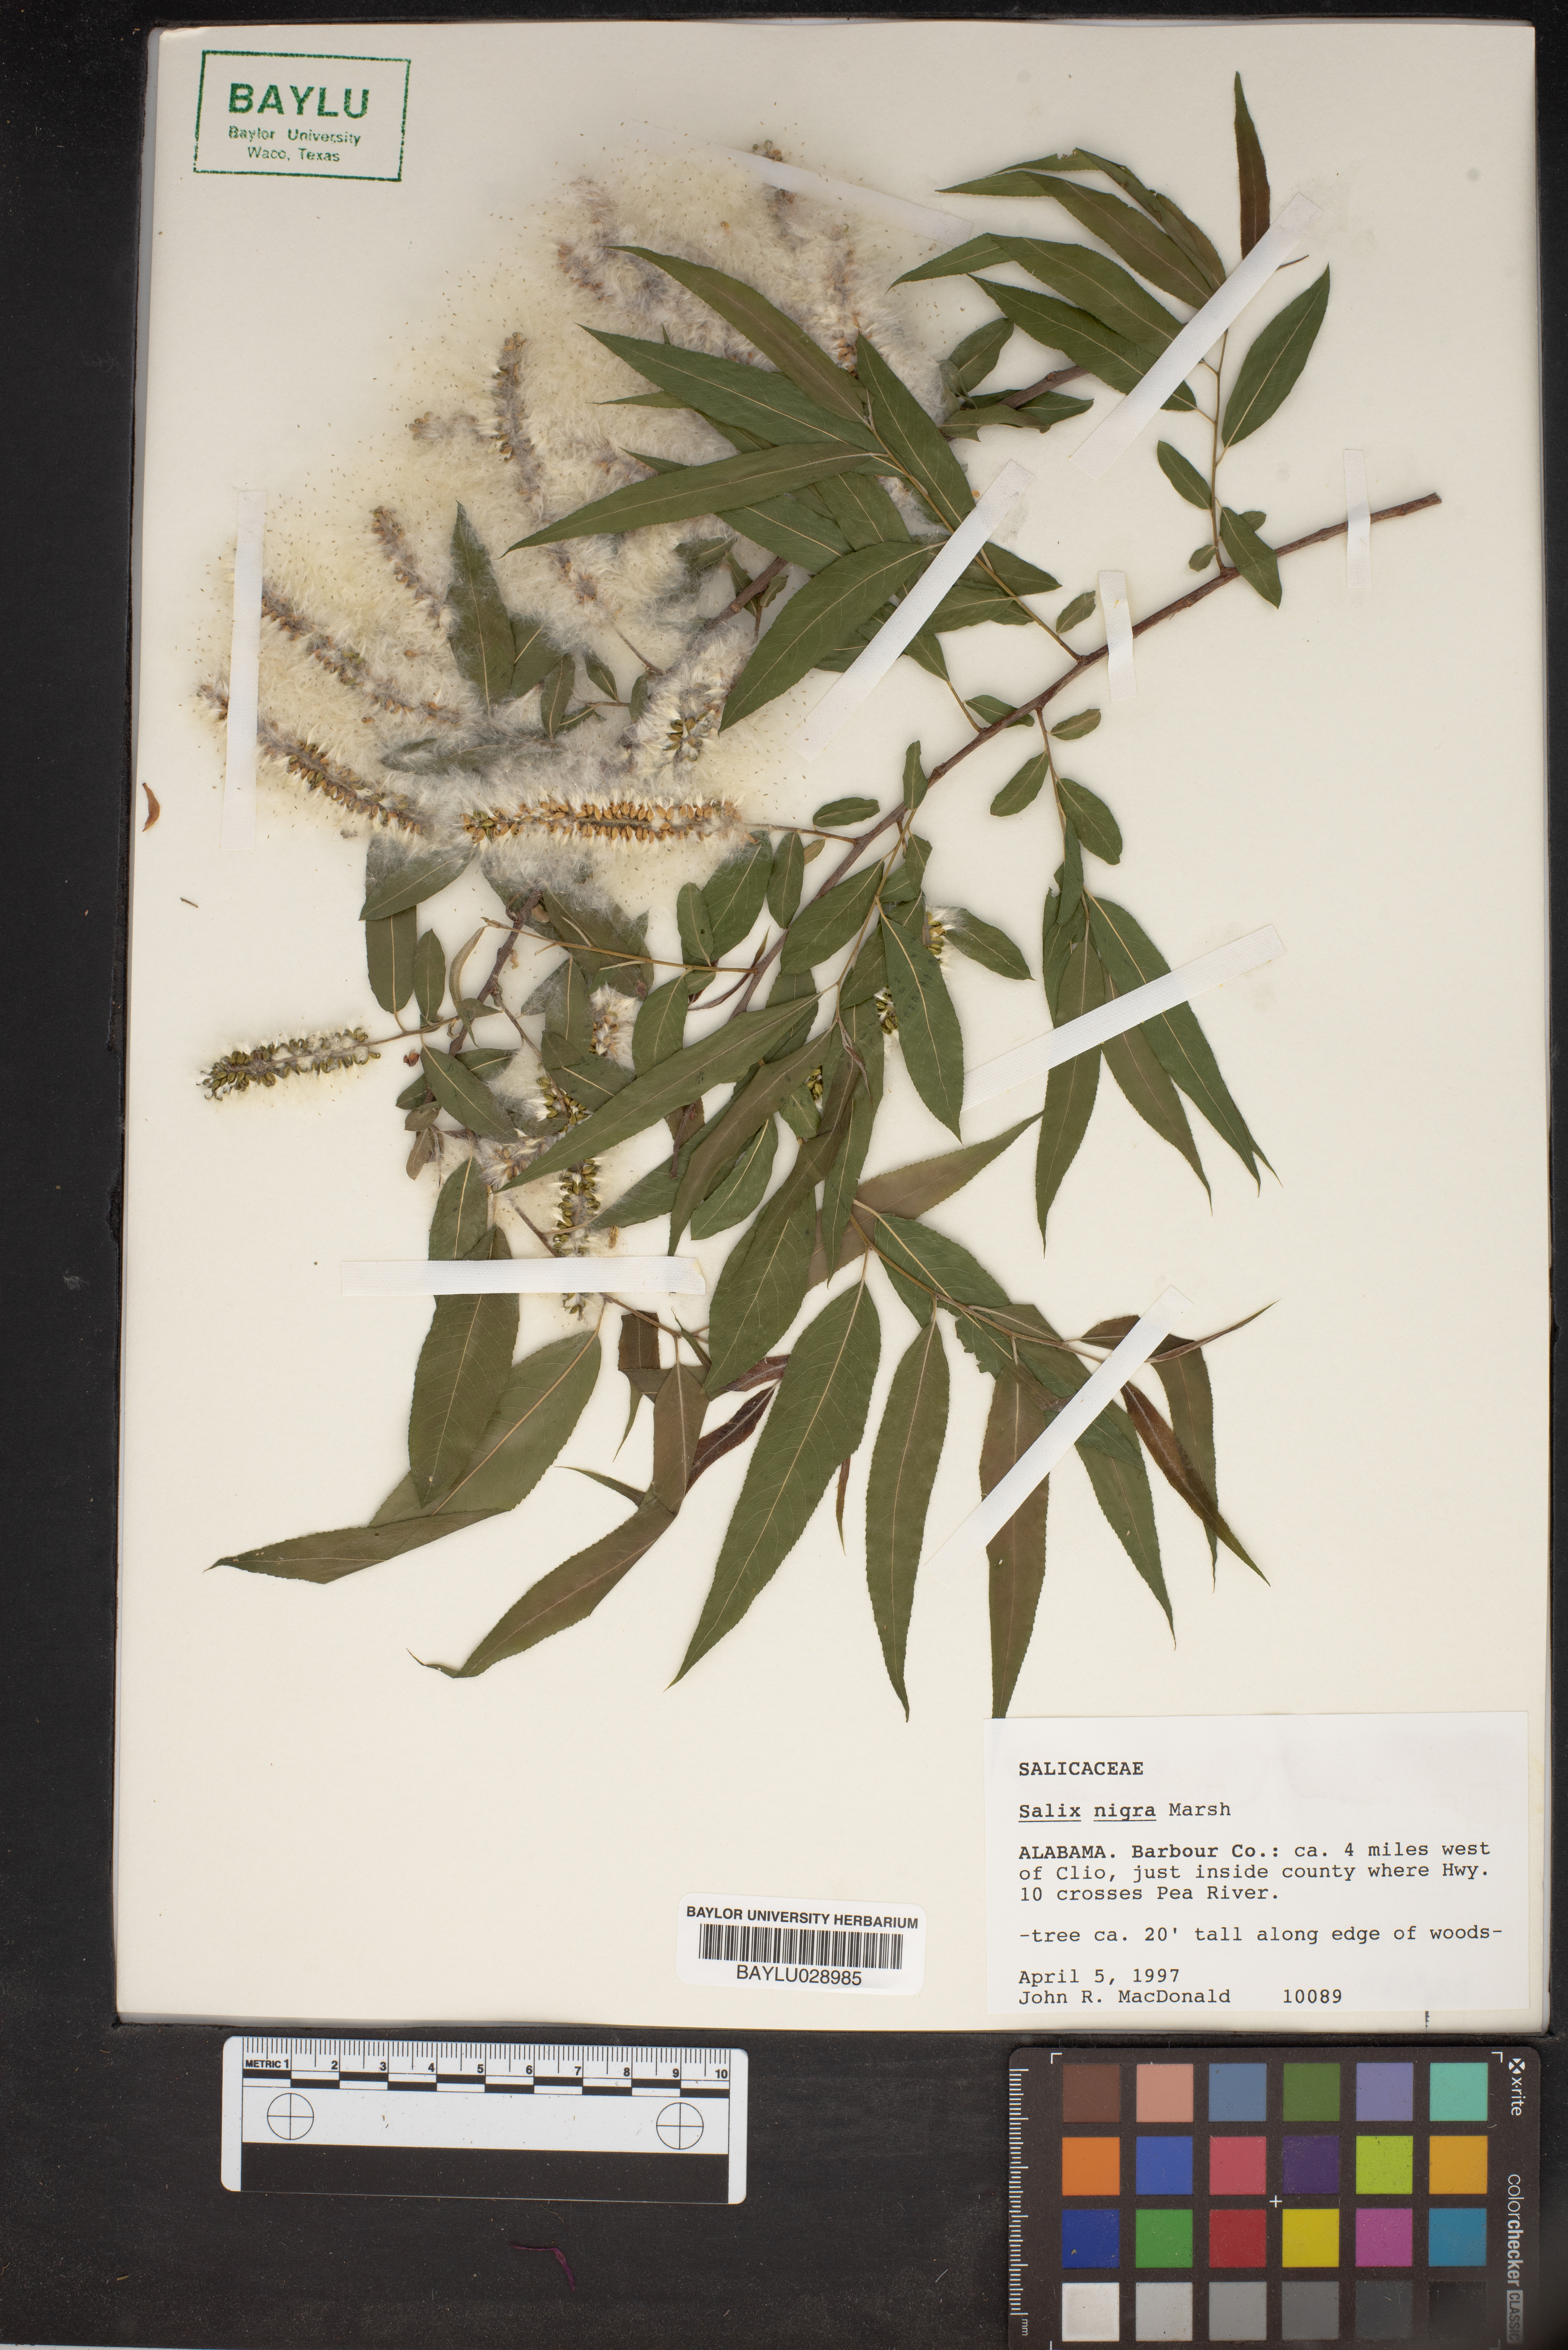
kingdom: Plantae
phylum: Tracheophyta
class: Magnoliopsida
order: Malpighiales
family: Salicaceae
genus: Salix
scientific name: Salix nigra
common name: Black willow
